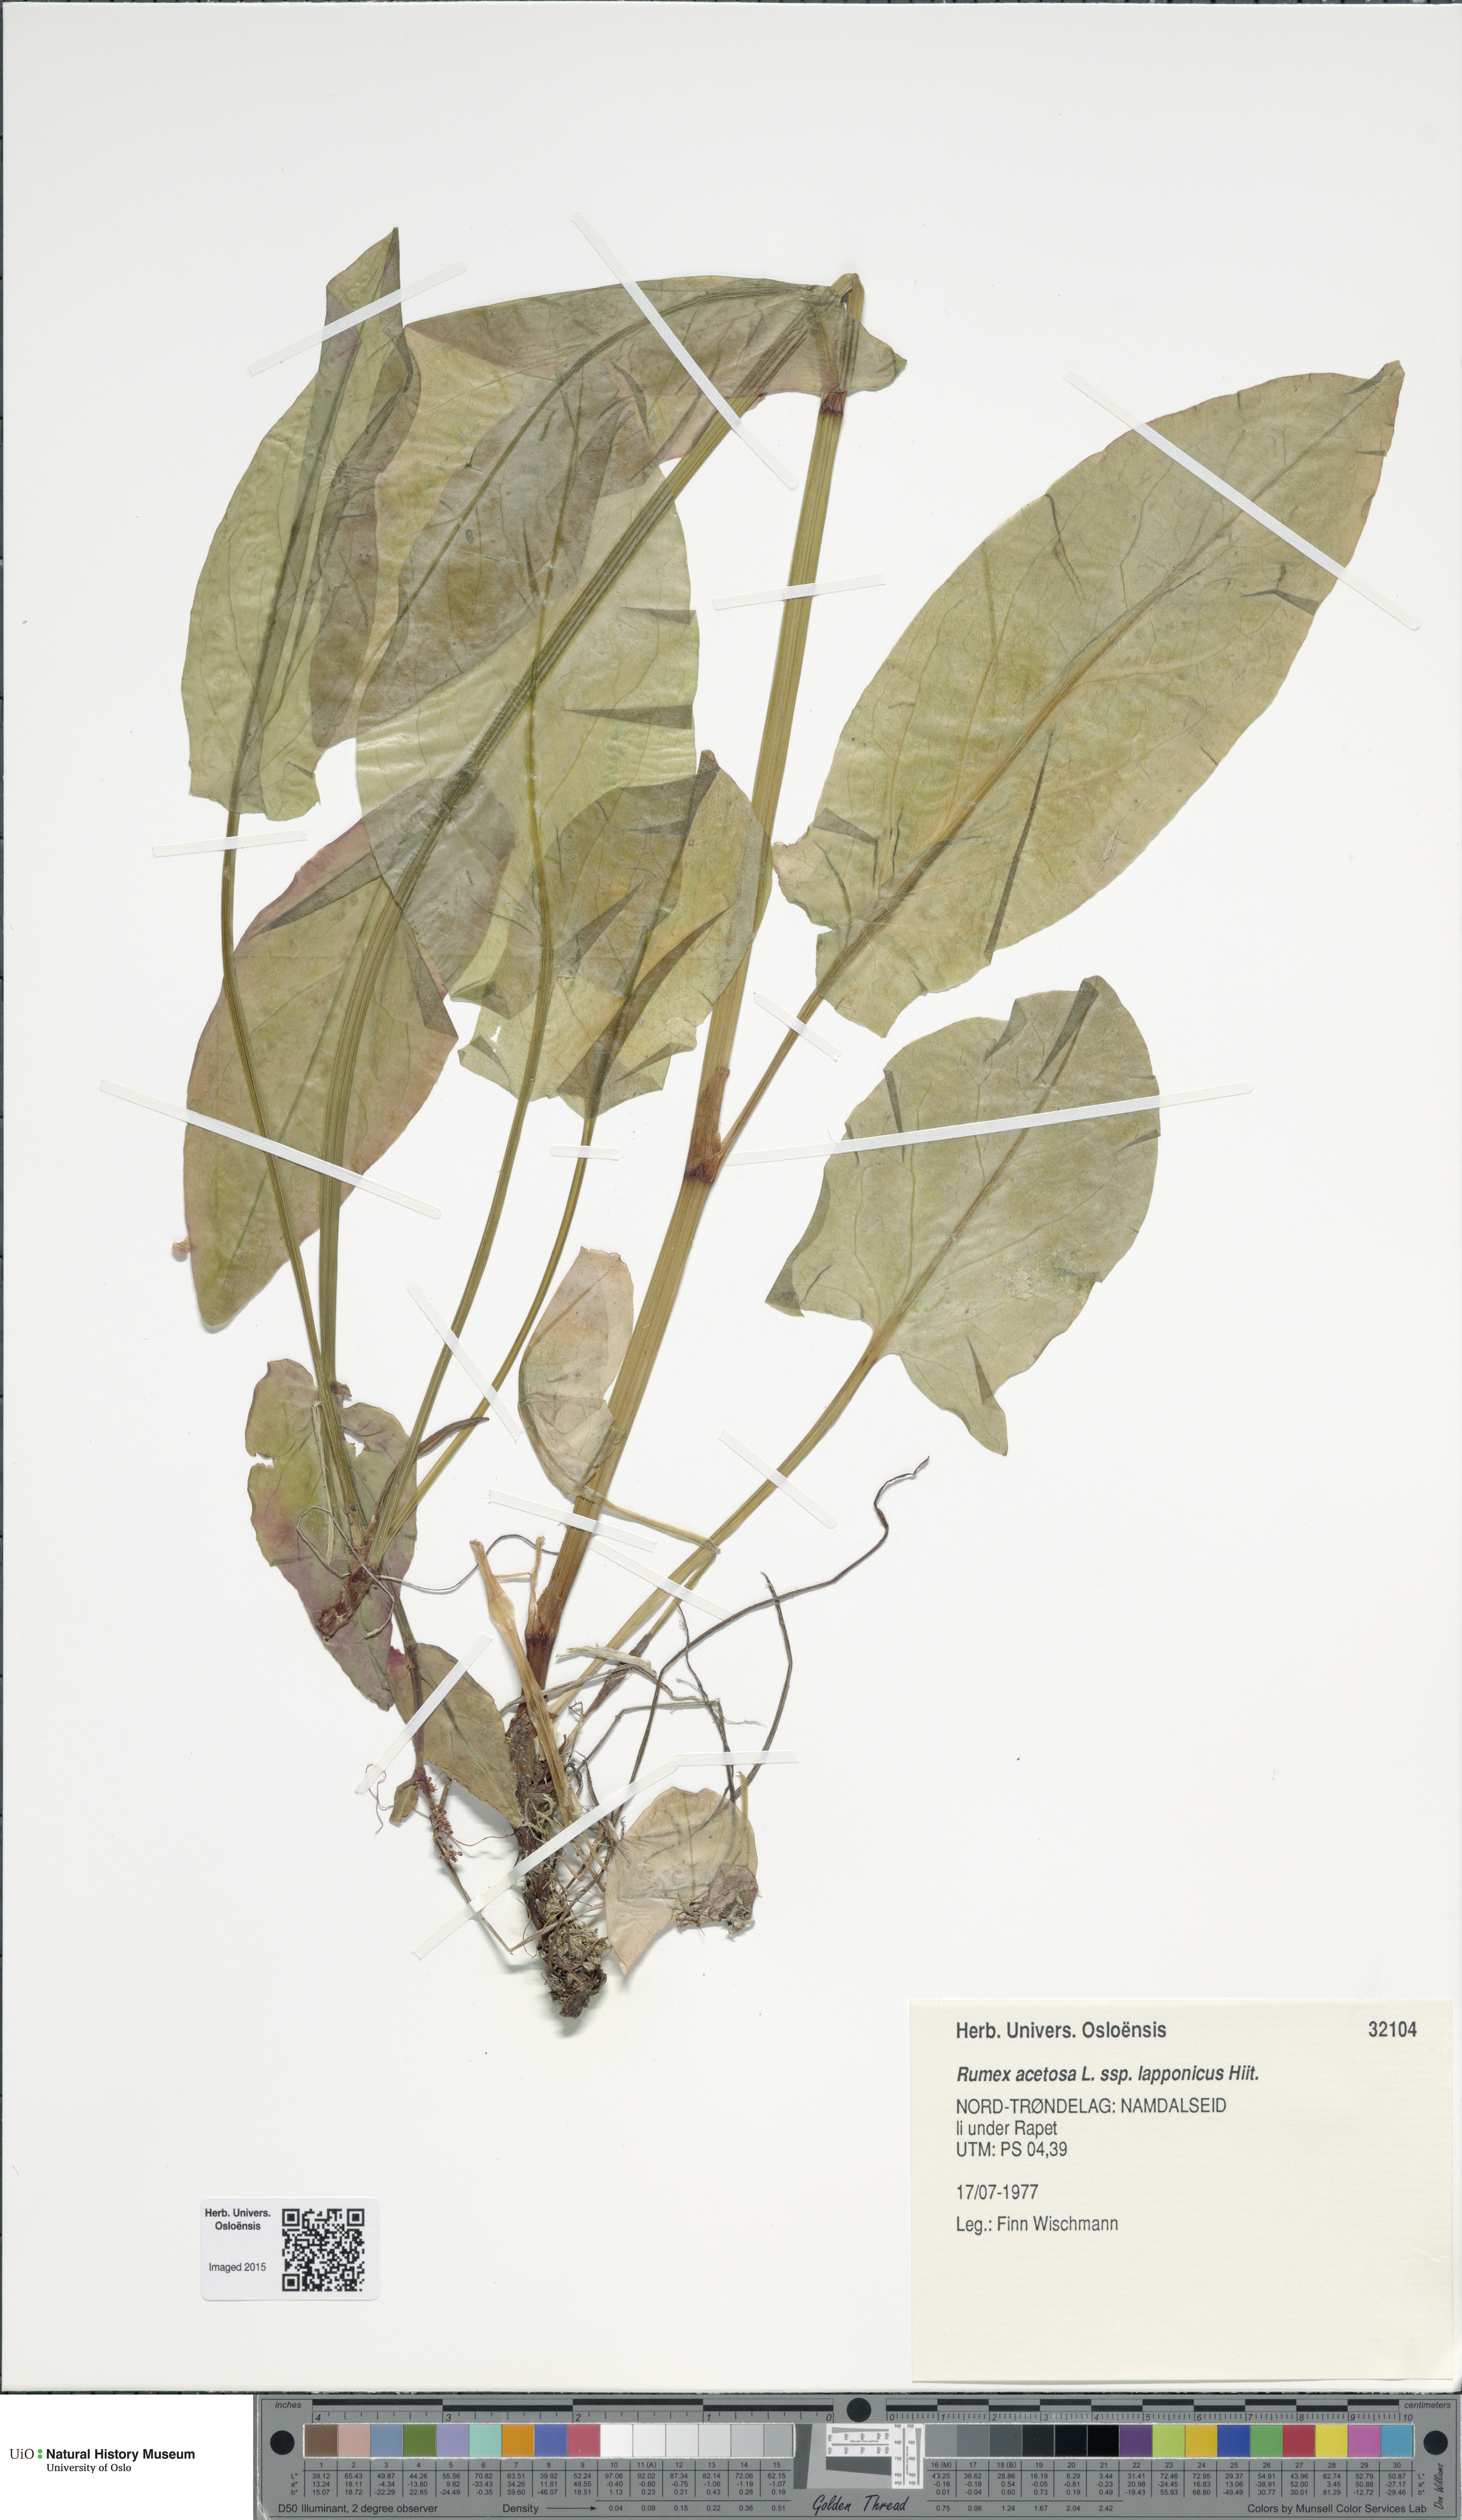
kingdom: Plantae
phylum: Tracheophyta
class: Magnoliopsida
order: Caryophyllales
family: Polygonaceae
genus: Rumex
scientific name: Rumex lapponicus
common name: Lapland mountain sorrel
